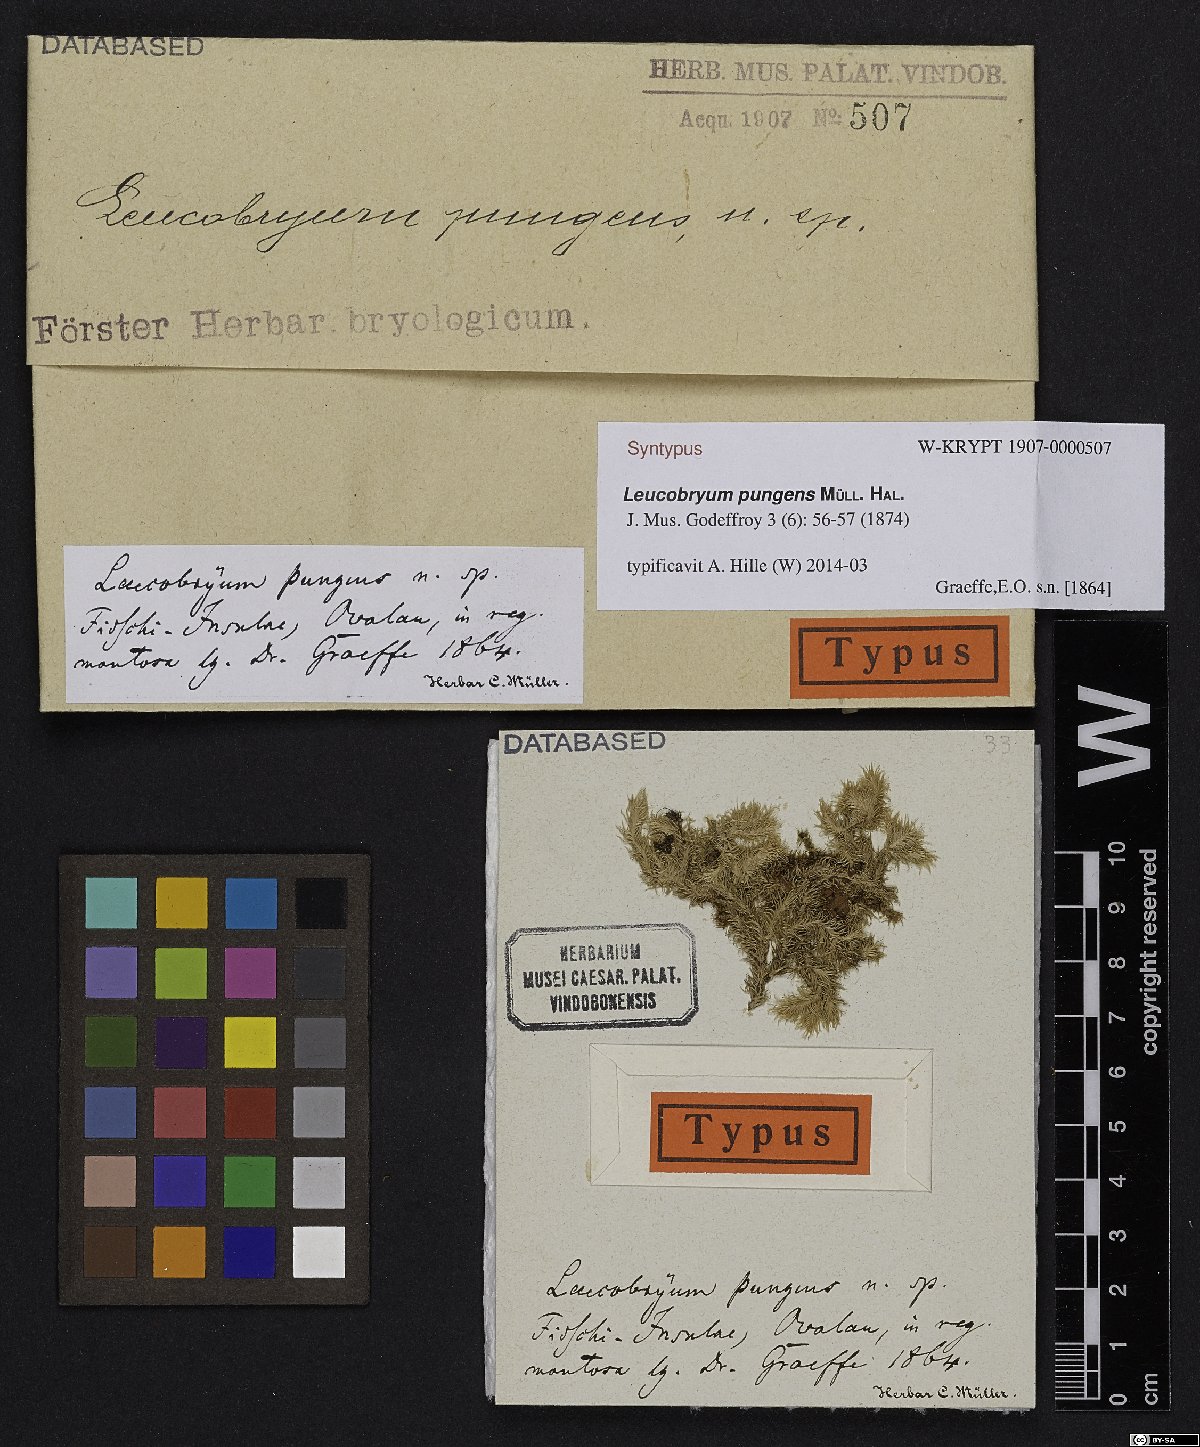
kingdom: Plantae
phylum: Bryophyta
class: Bryopsida
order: Dicranales
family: Leucobryaceae
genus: Leucobryum
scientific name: Leucobryum pungens
